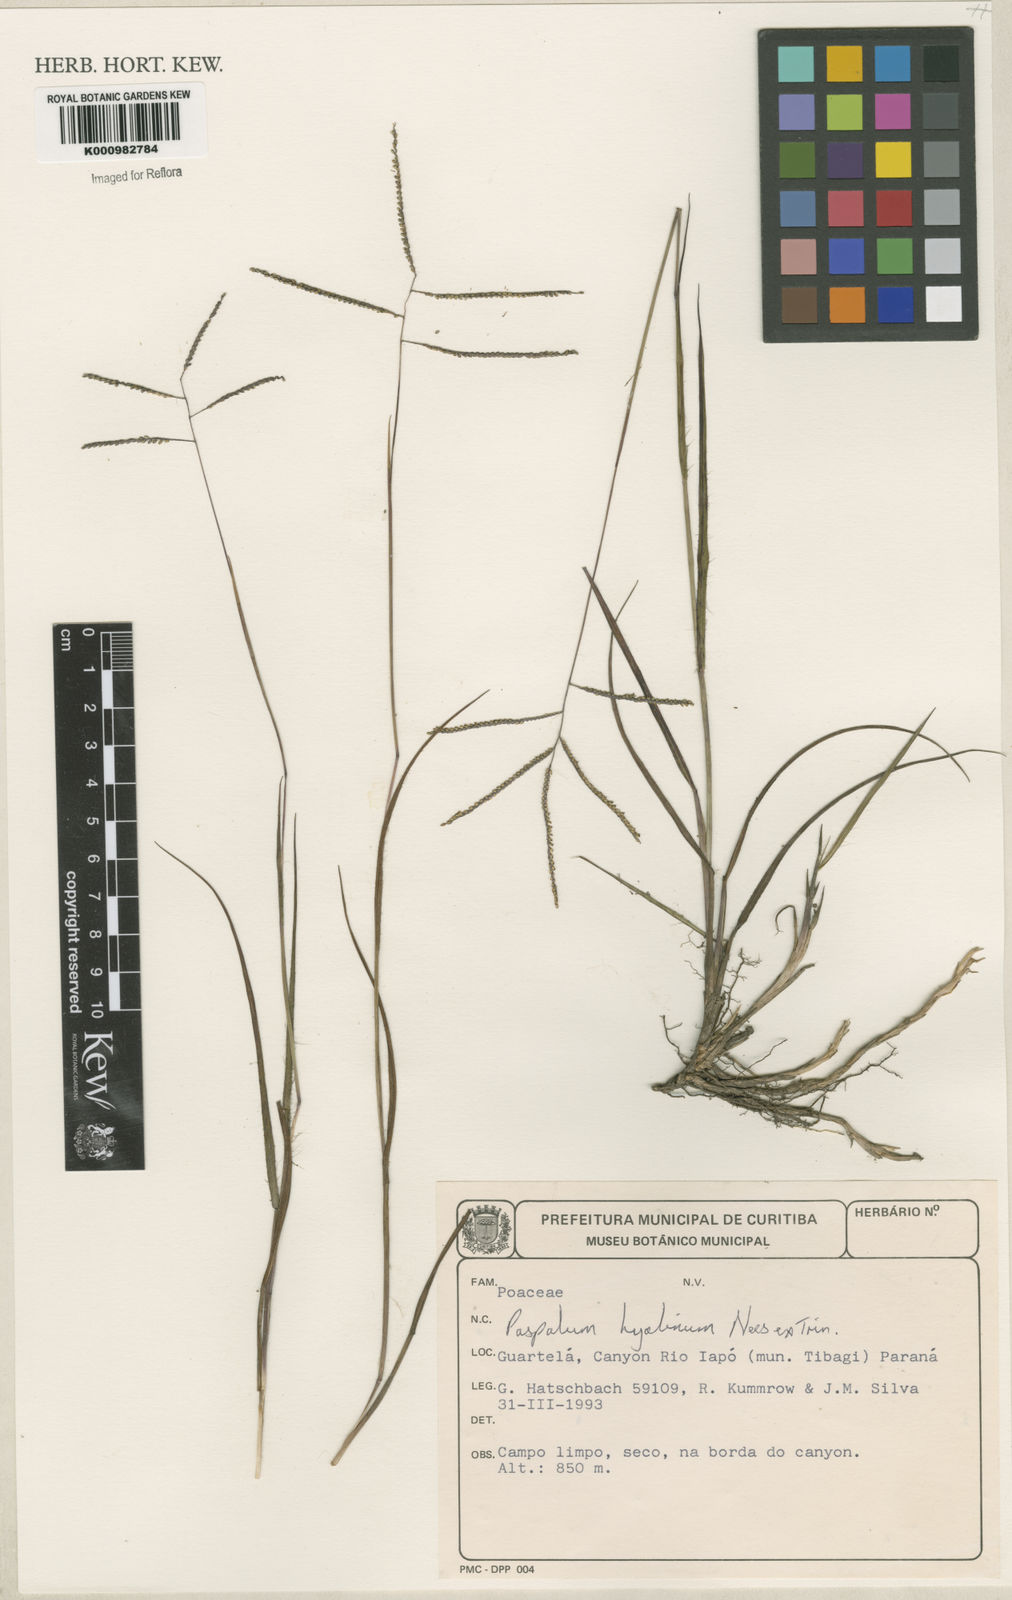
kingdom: Plantae
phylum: Tracheophyta
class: Liliopsida
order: Poales
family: Poaceae
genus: Paspalum
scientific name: Paspalum hyalinum
